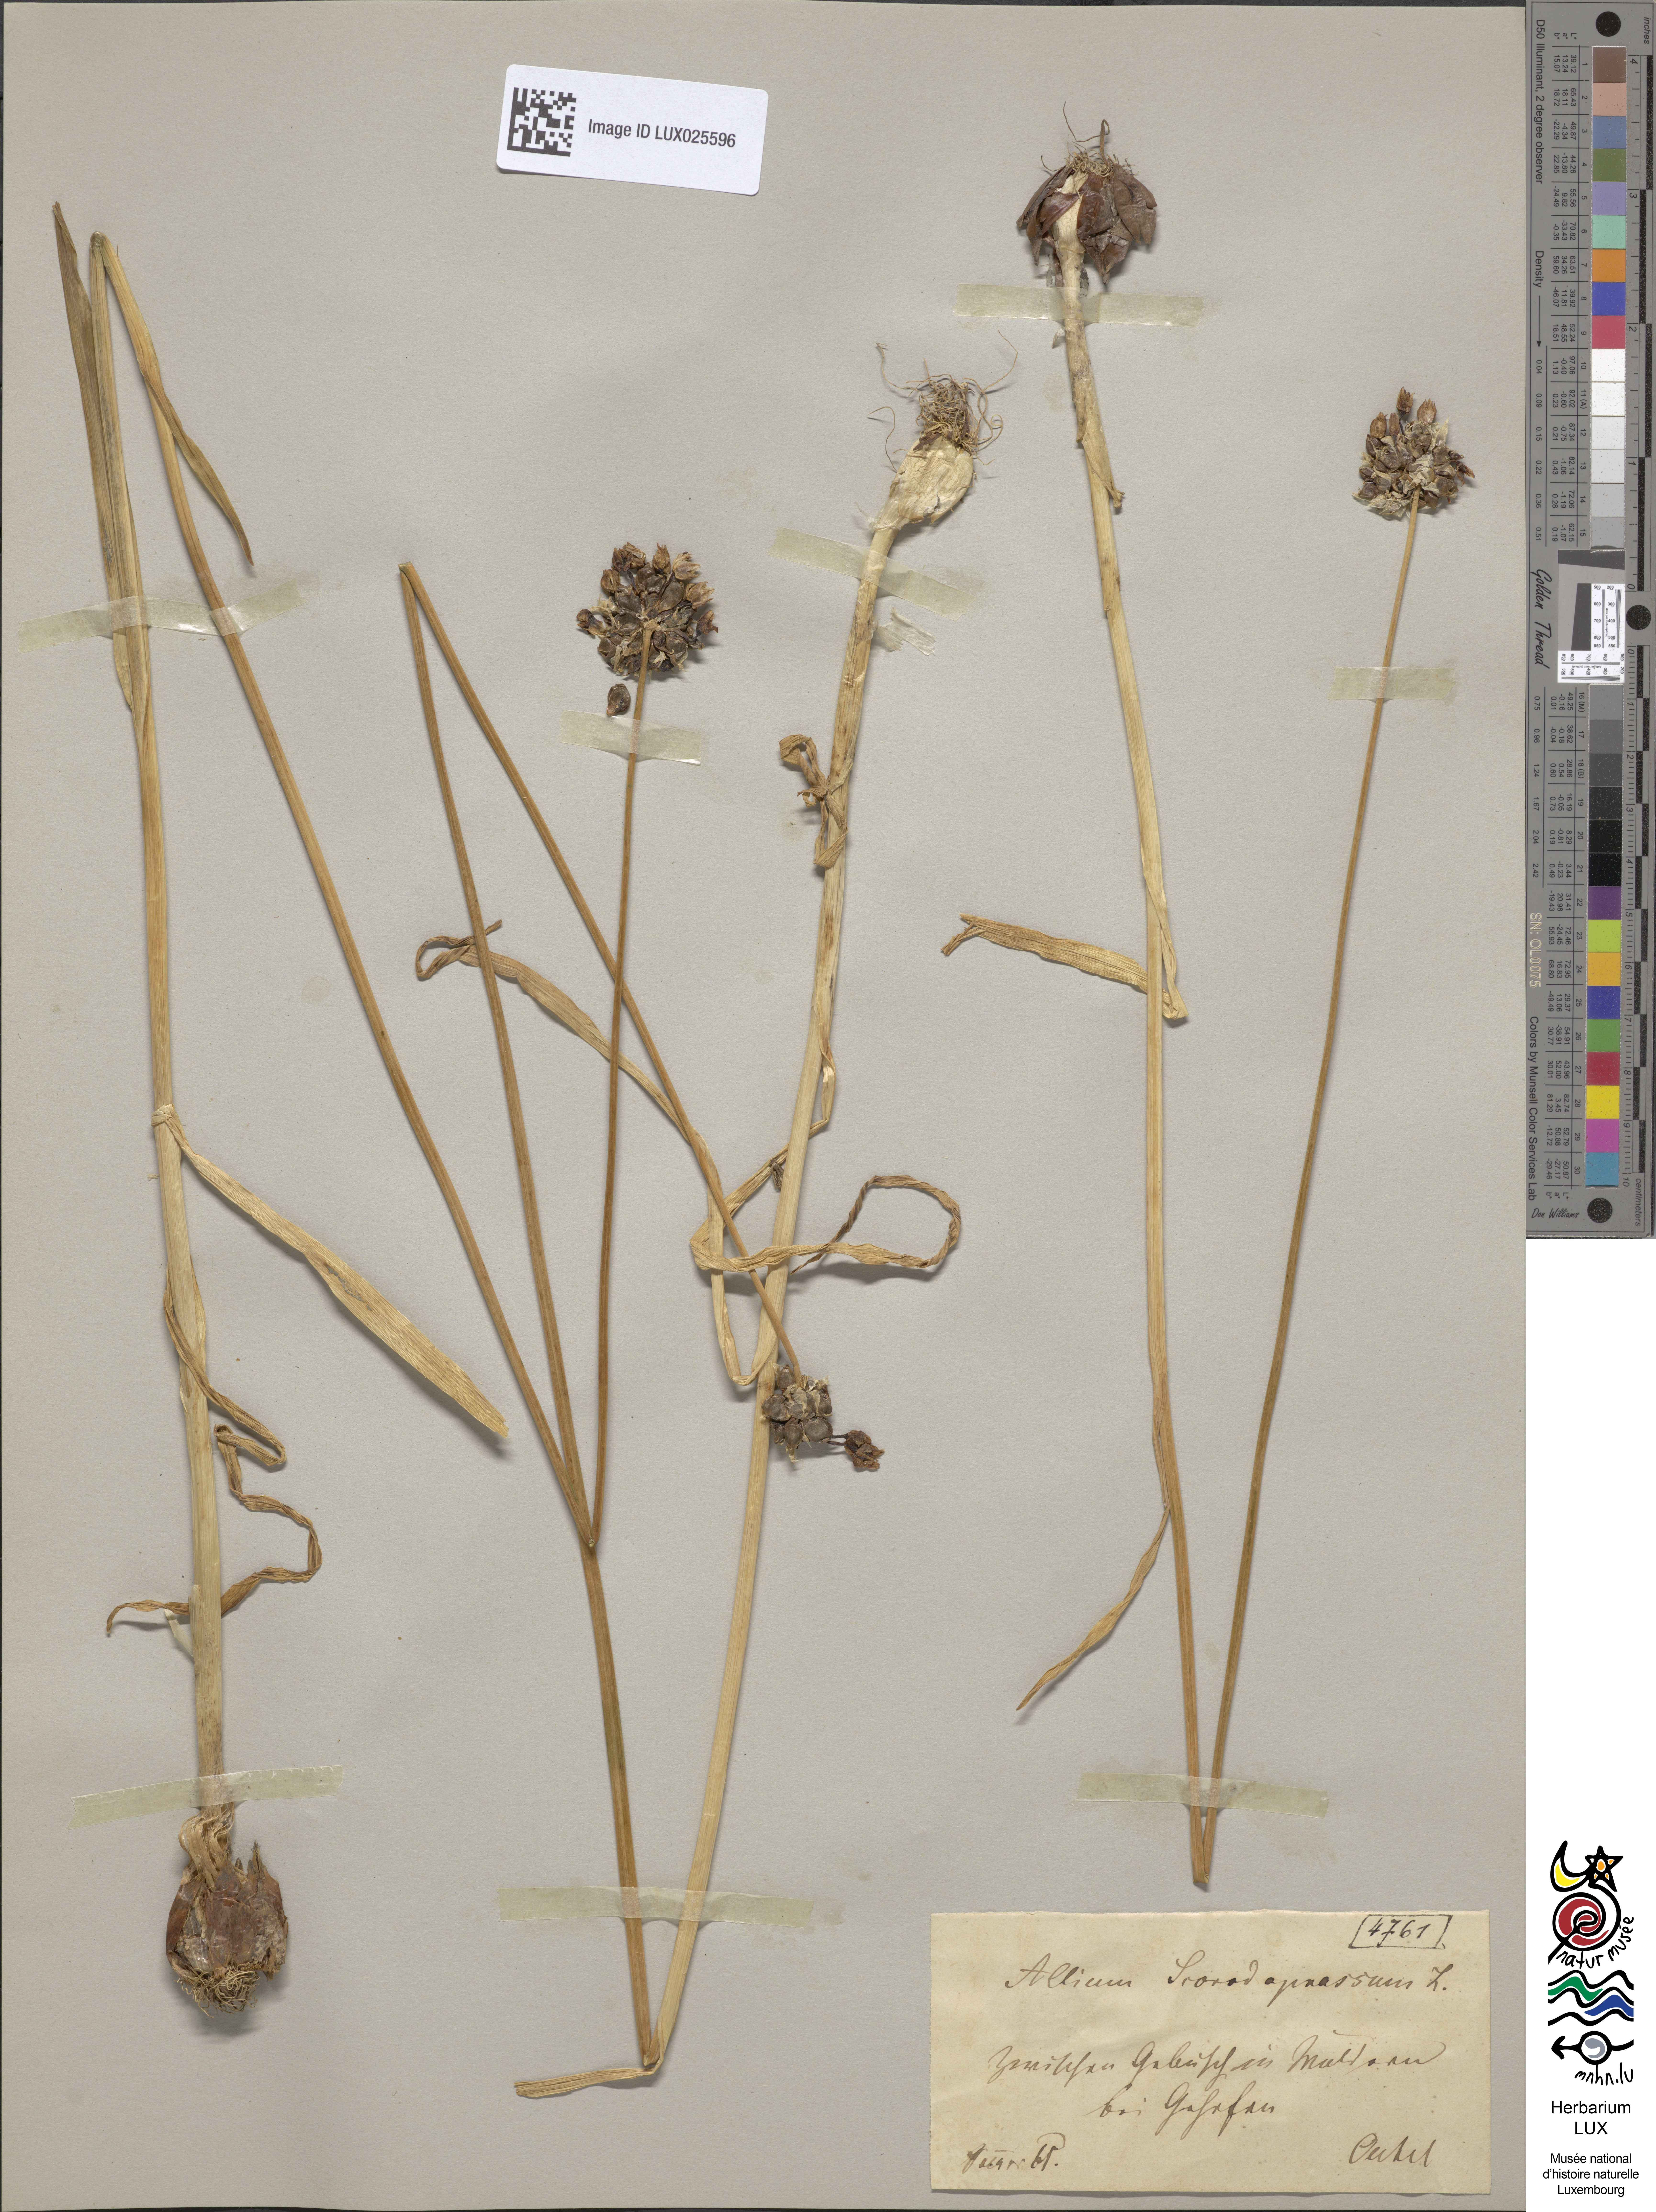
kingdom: Plantae
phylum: Tracheophyta
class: Liliopsida
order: Asparagales
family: Amaryllidaceae
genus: Allium
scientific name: Allium scorodoprasum
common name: Sand leek
